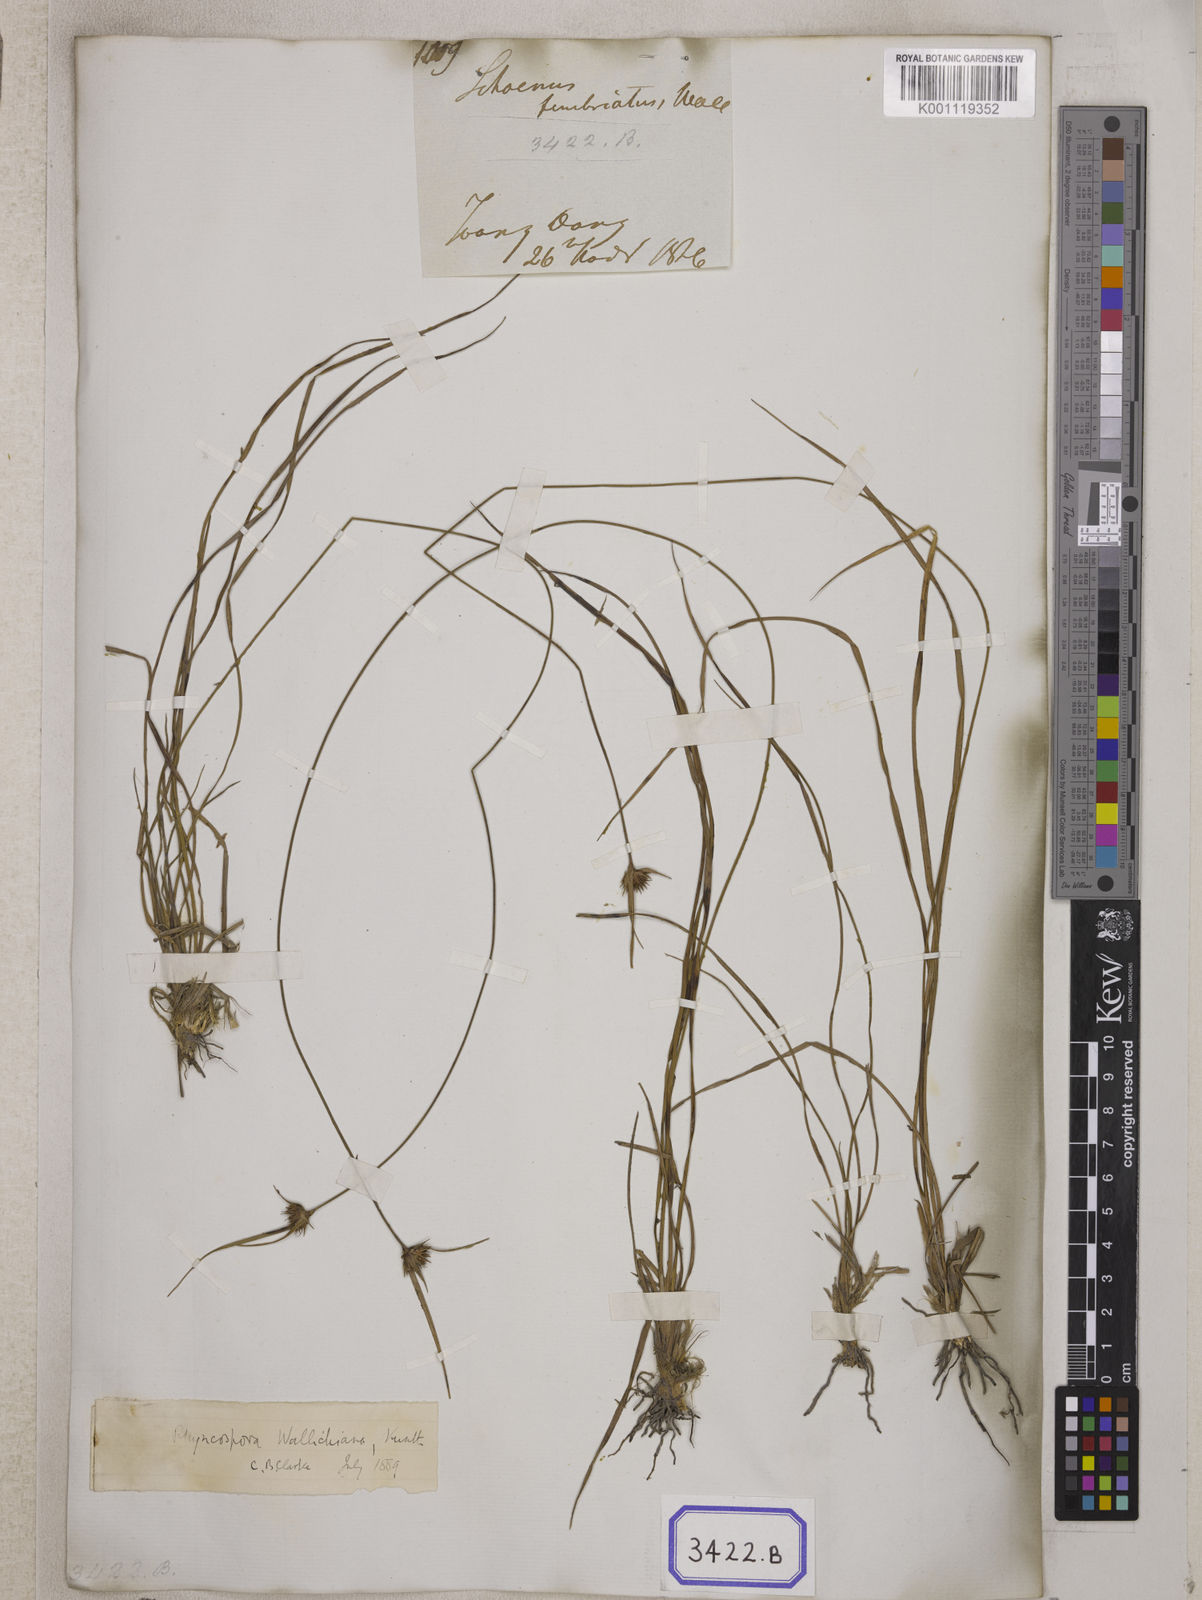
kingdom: Plantae
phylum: Tracheophyta
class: Liliopsida
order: Poales
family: Cyperaceae
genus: Rhynchospora
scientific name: Rhynchospora
